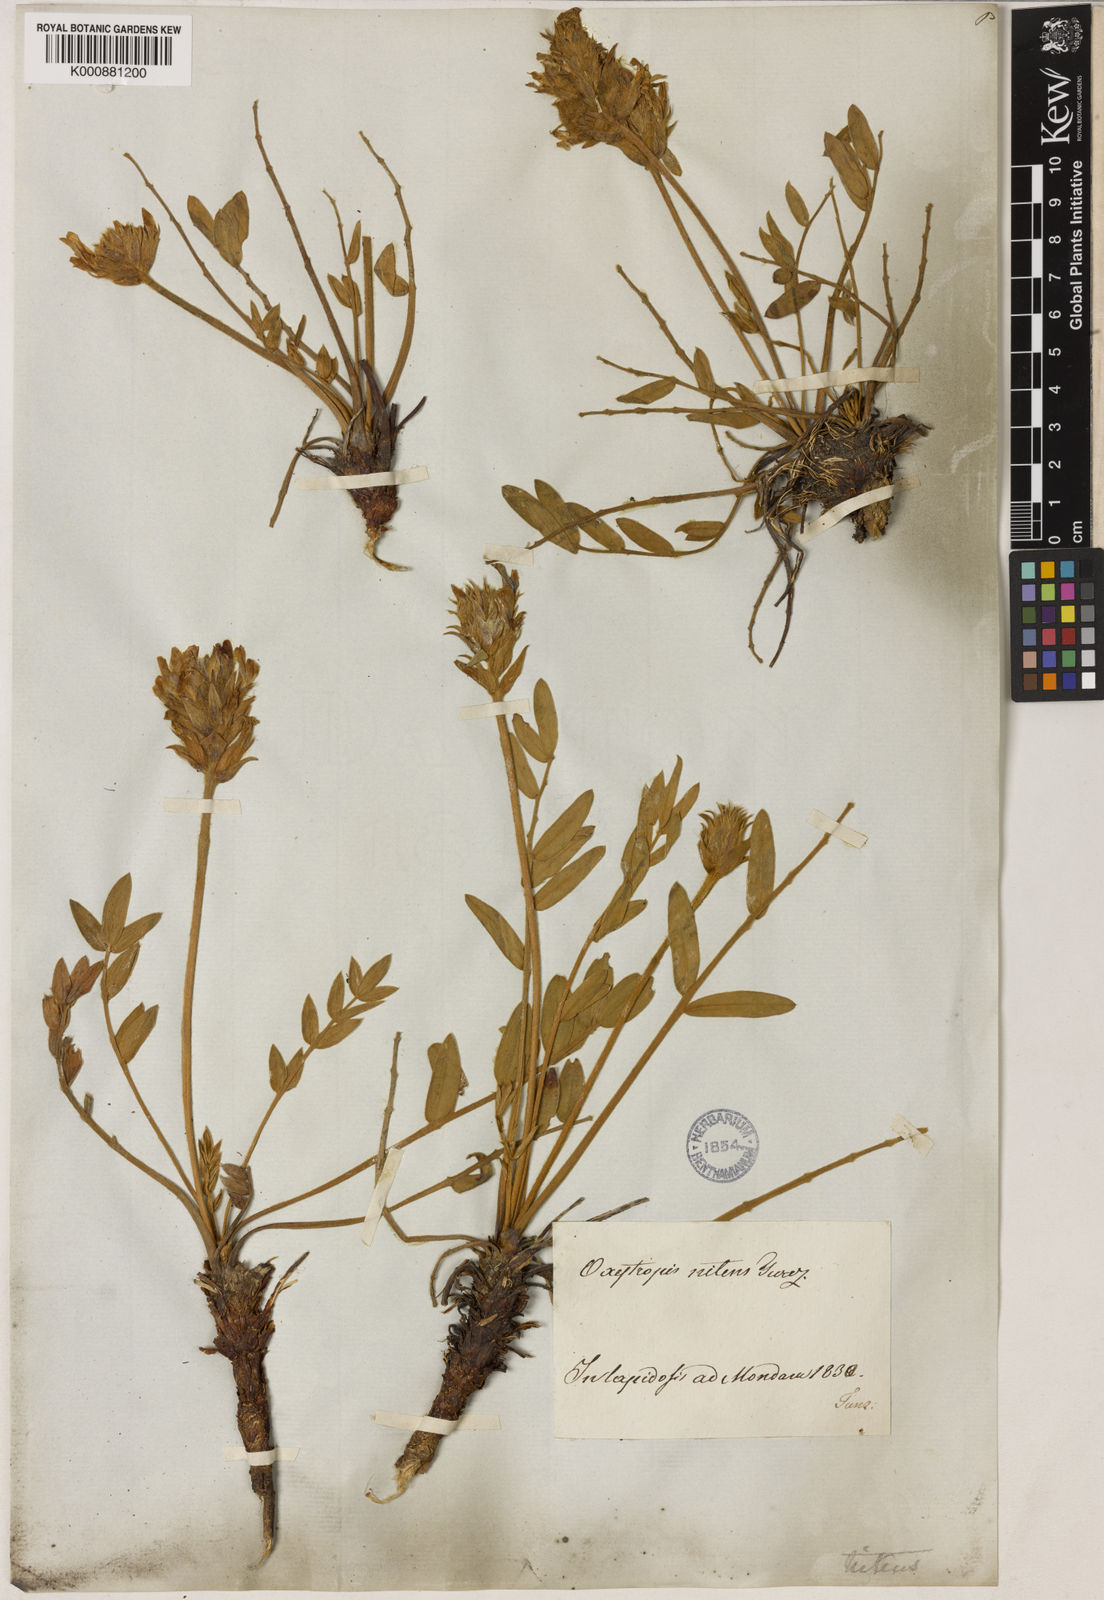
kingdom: Plantae
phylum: Tracheophyta
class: Magnoliopsida
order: Fabales
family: Fabaceae
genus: Oxytropis
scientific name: Oxytropis nitens
